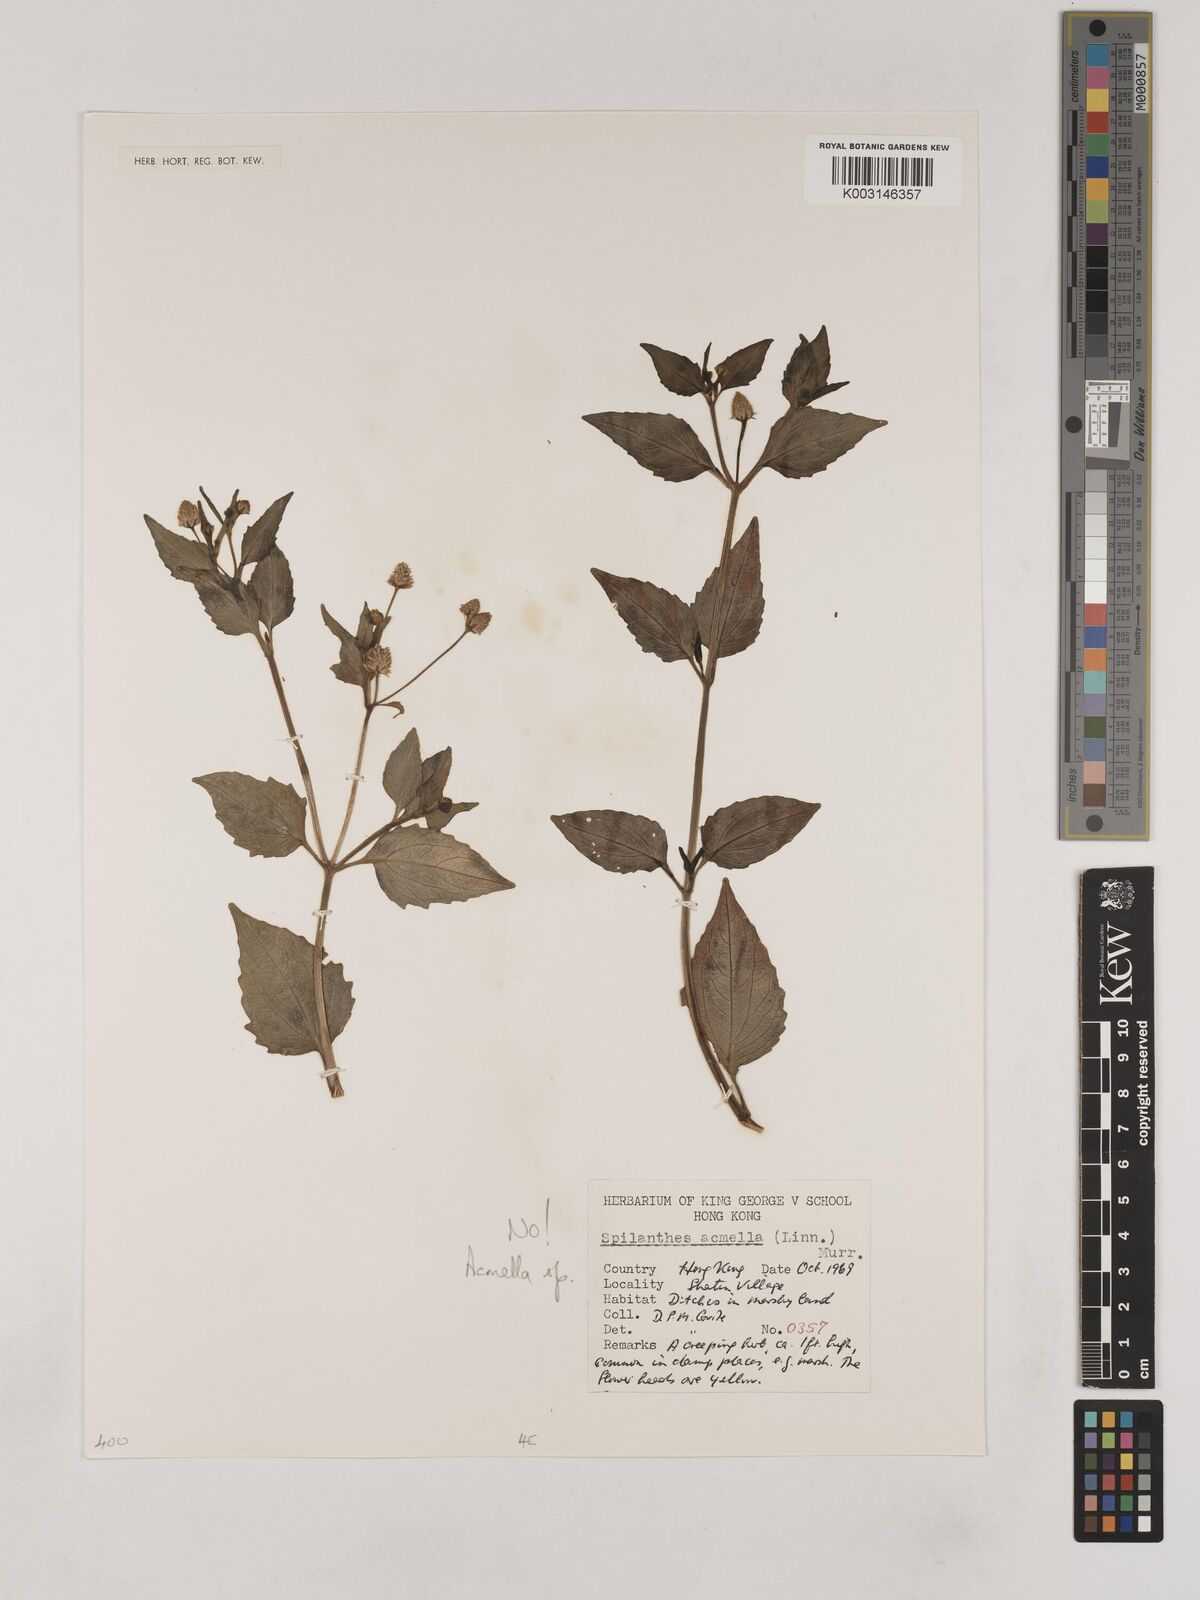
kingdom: Plantae
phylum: Tracheophyta
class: Magnoliopsida
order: Asterales
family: Asteraceae
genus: Acmella
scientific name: Acmella
